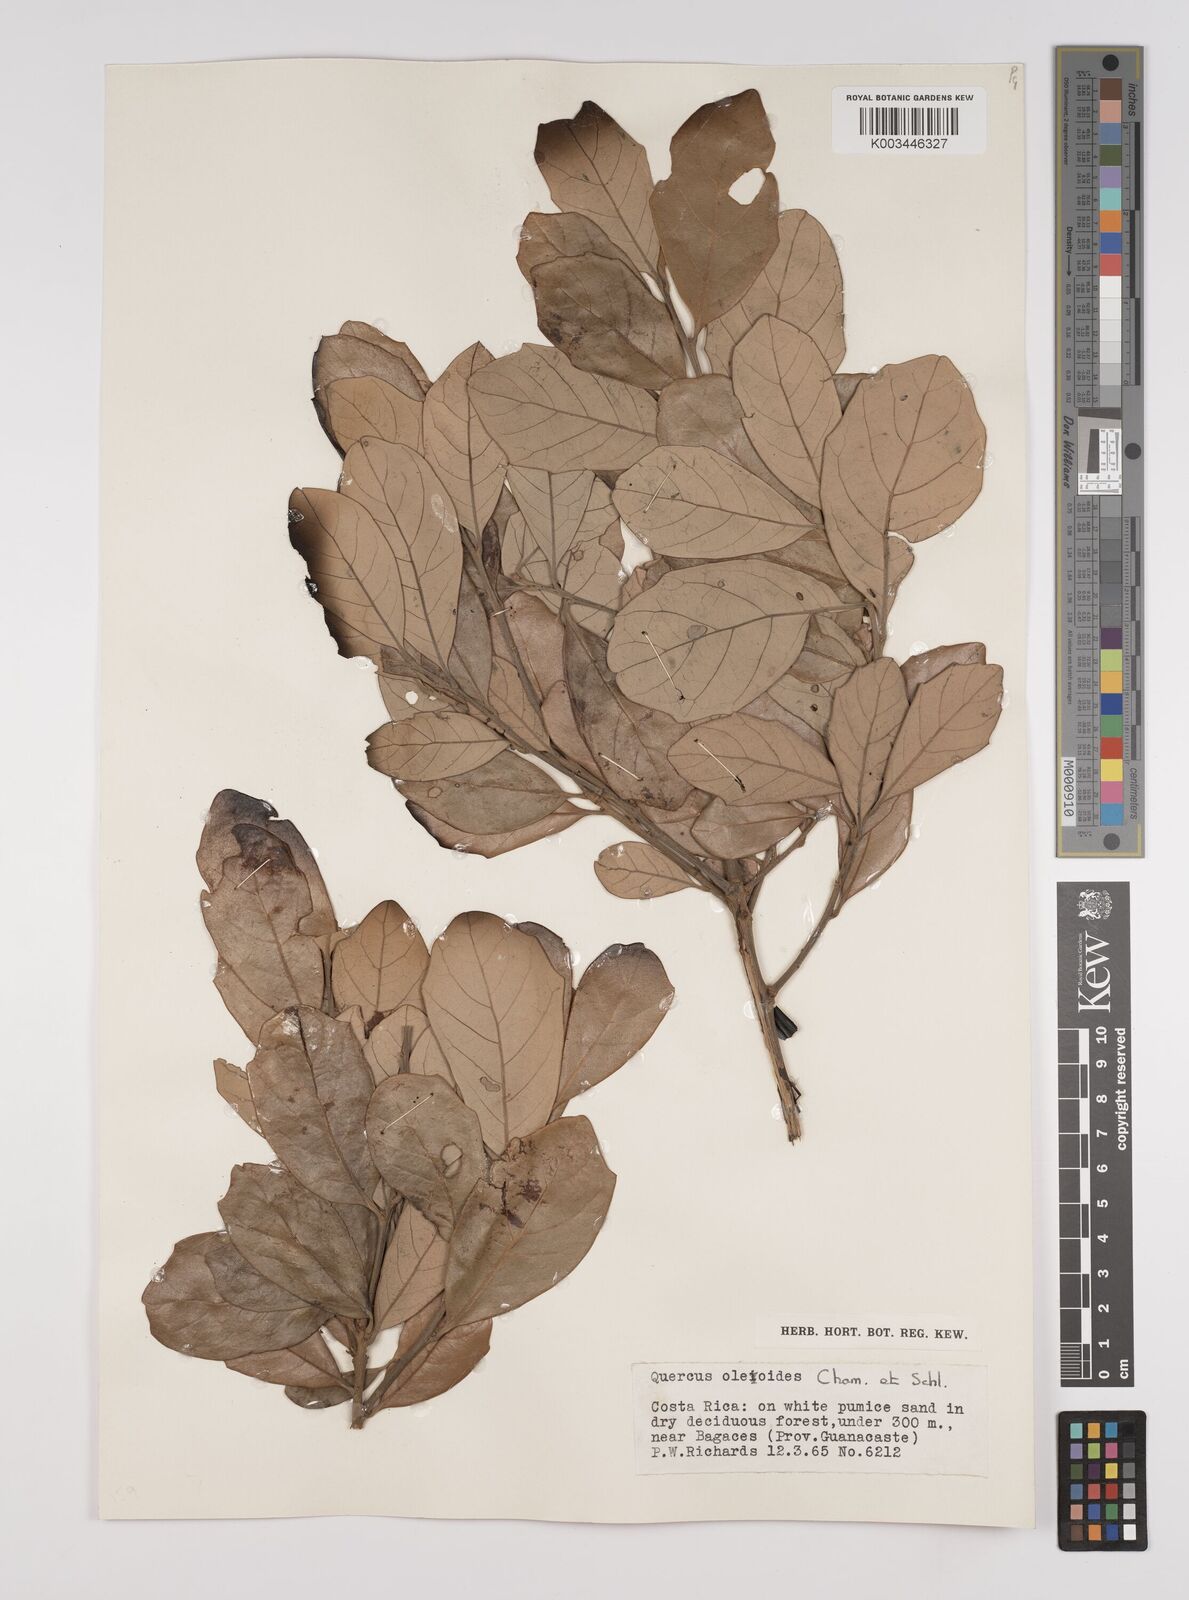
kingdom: Plantae
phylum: Tracheophyta
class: Magnoliopsida
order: Fagales
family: Fagaceae
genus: Quercus
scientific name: Quercus oleoides
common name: White oak
